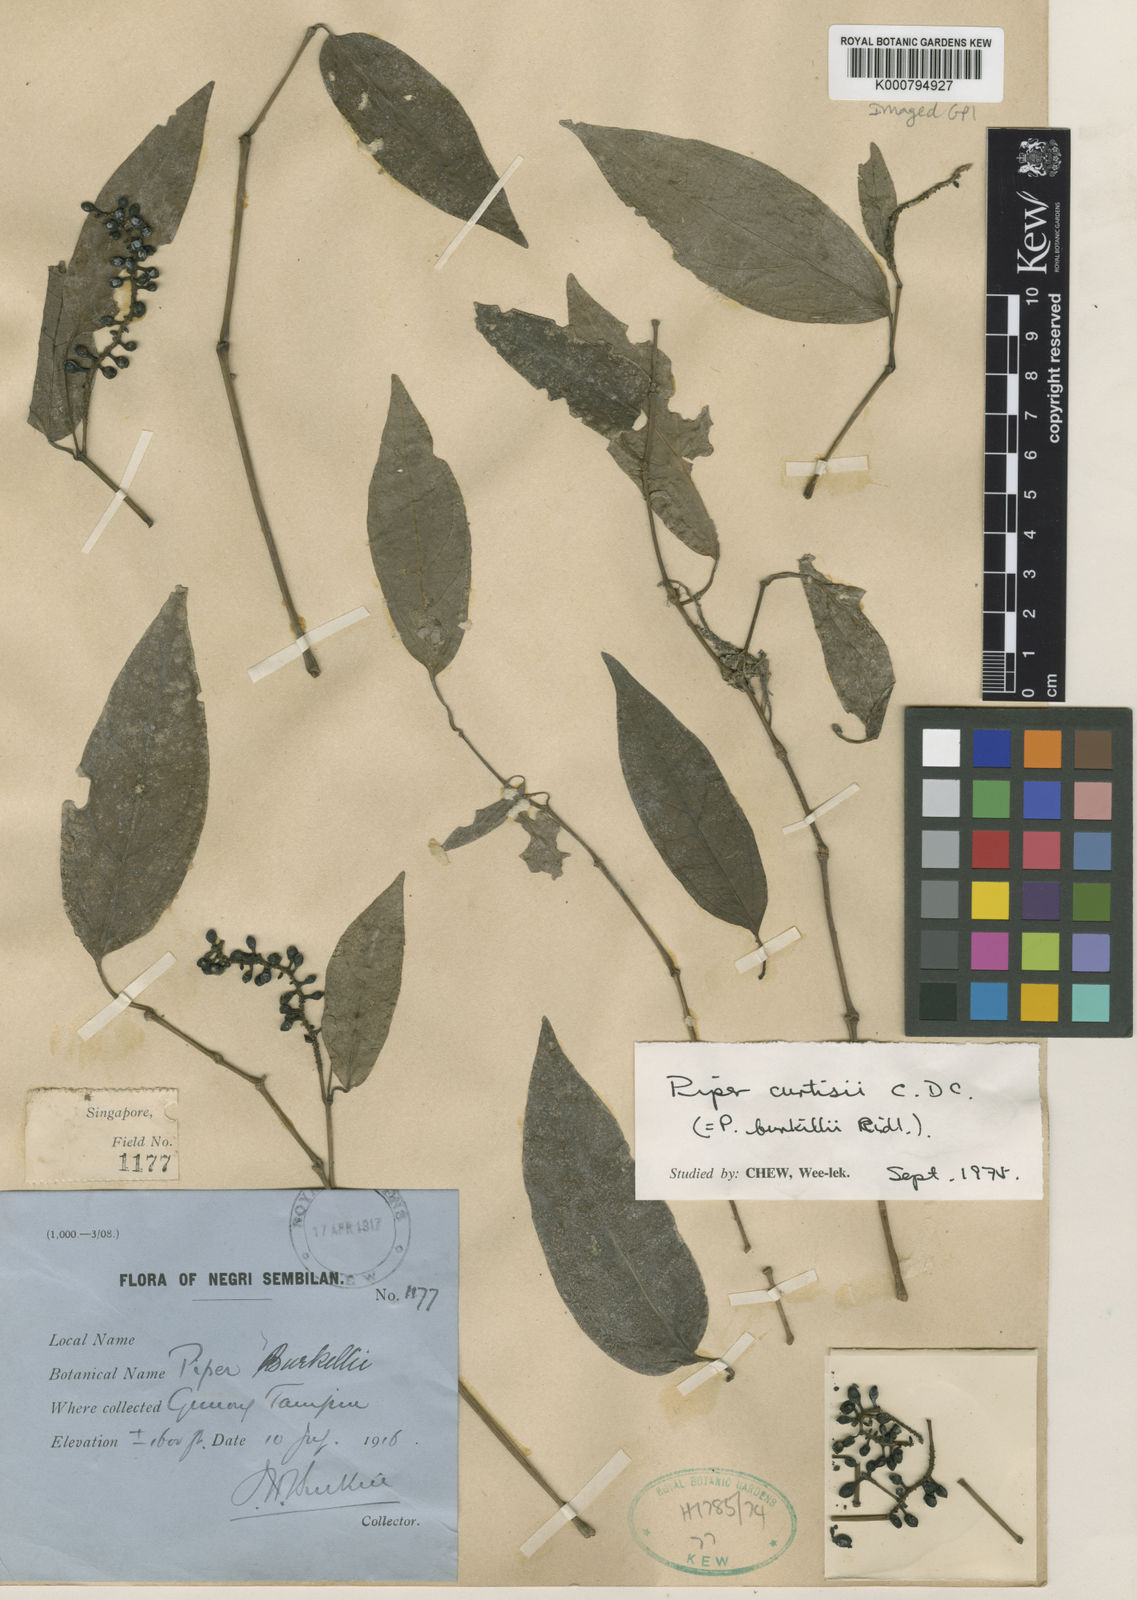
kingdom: Plantae
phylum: Tracheophyta
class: Magnoliopsida
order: Piperales
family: Piperaceae
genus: Piper
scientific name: Piper burkillii
